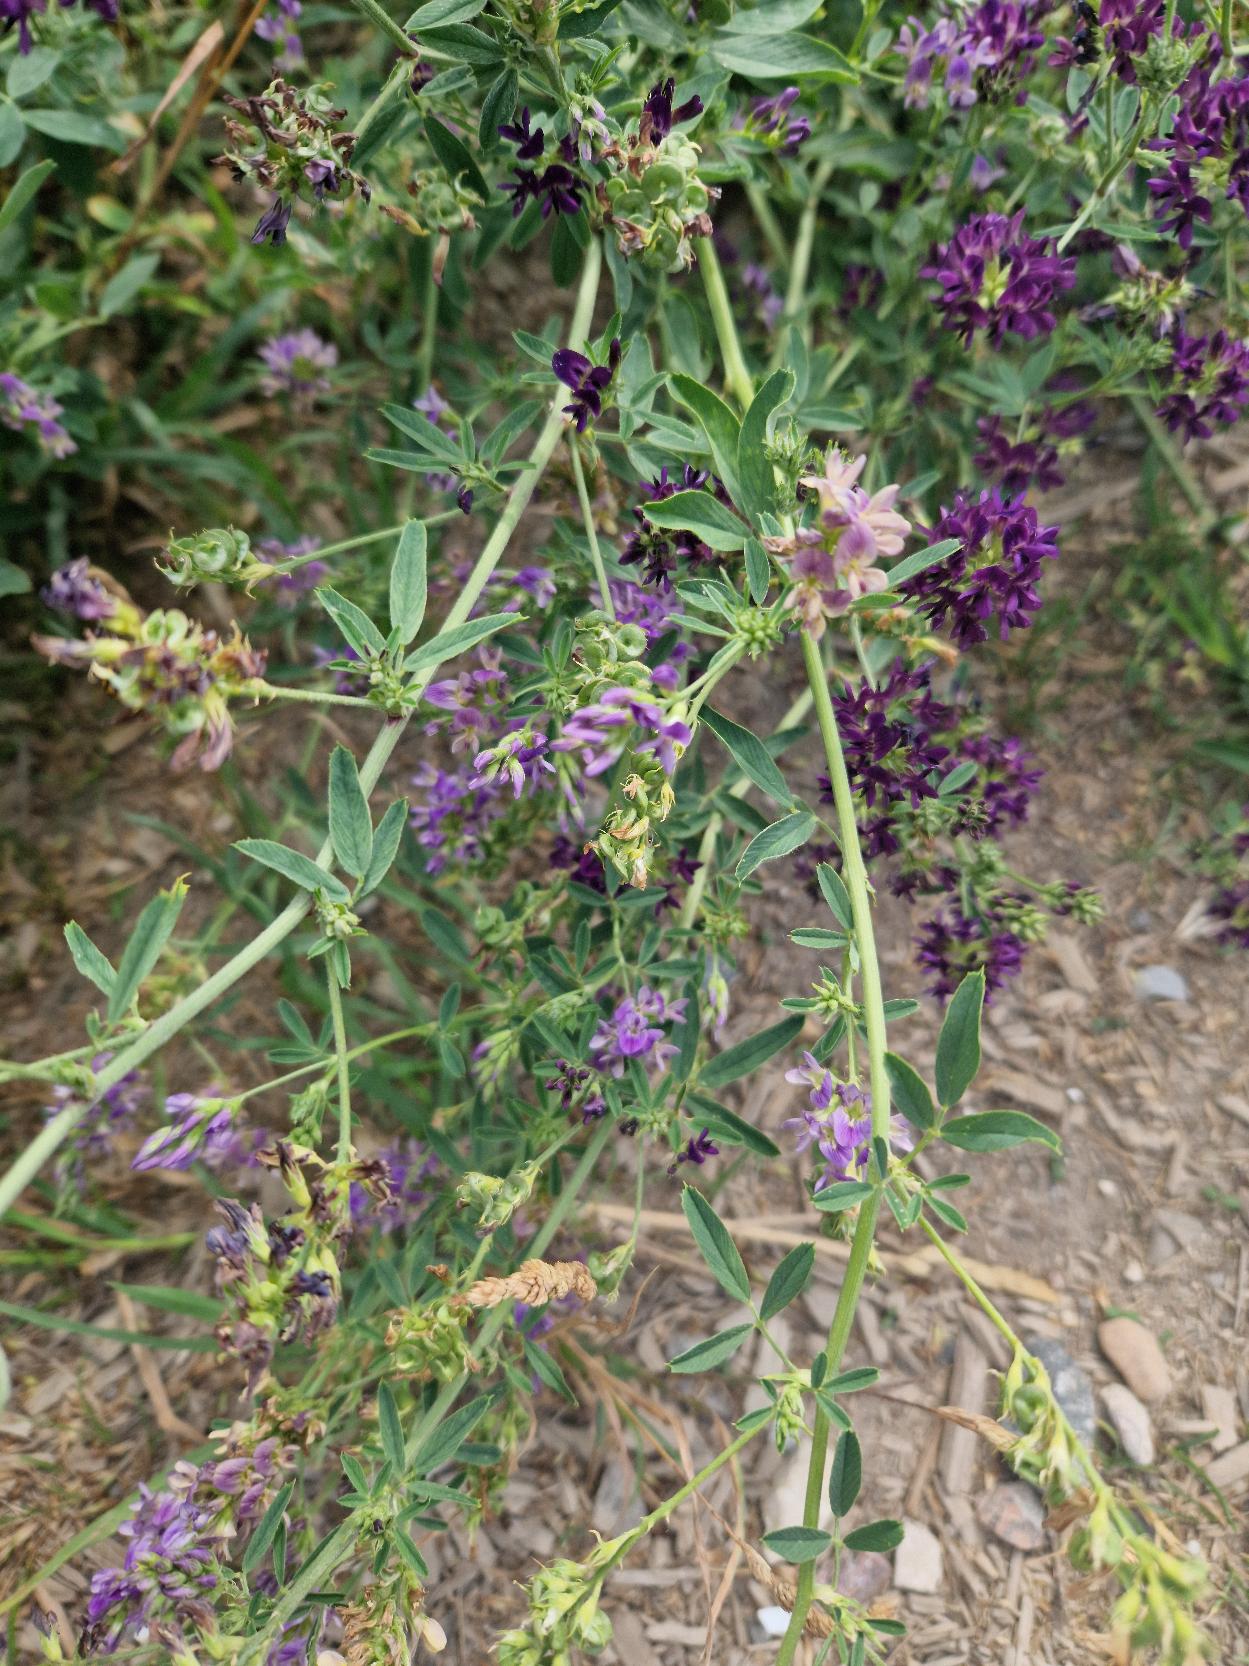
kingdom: Plantae
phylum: Tracheophyta
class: Magnoliopsida
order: Fabales
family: Fabaceae
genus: Medicago
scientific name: Medicago sativa
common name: Lucerne
